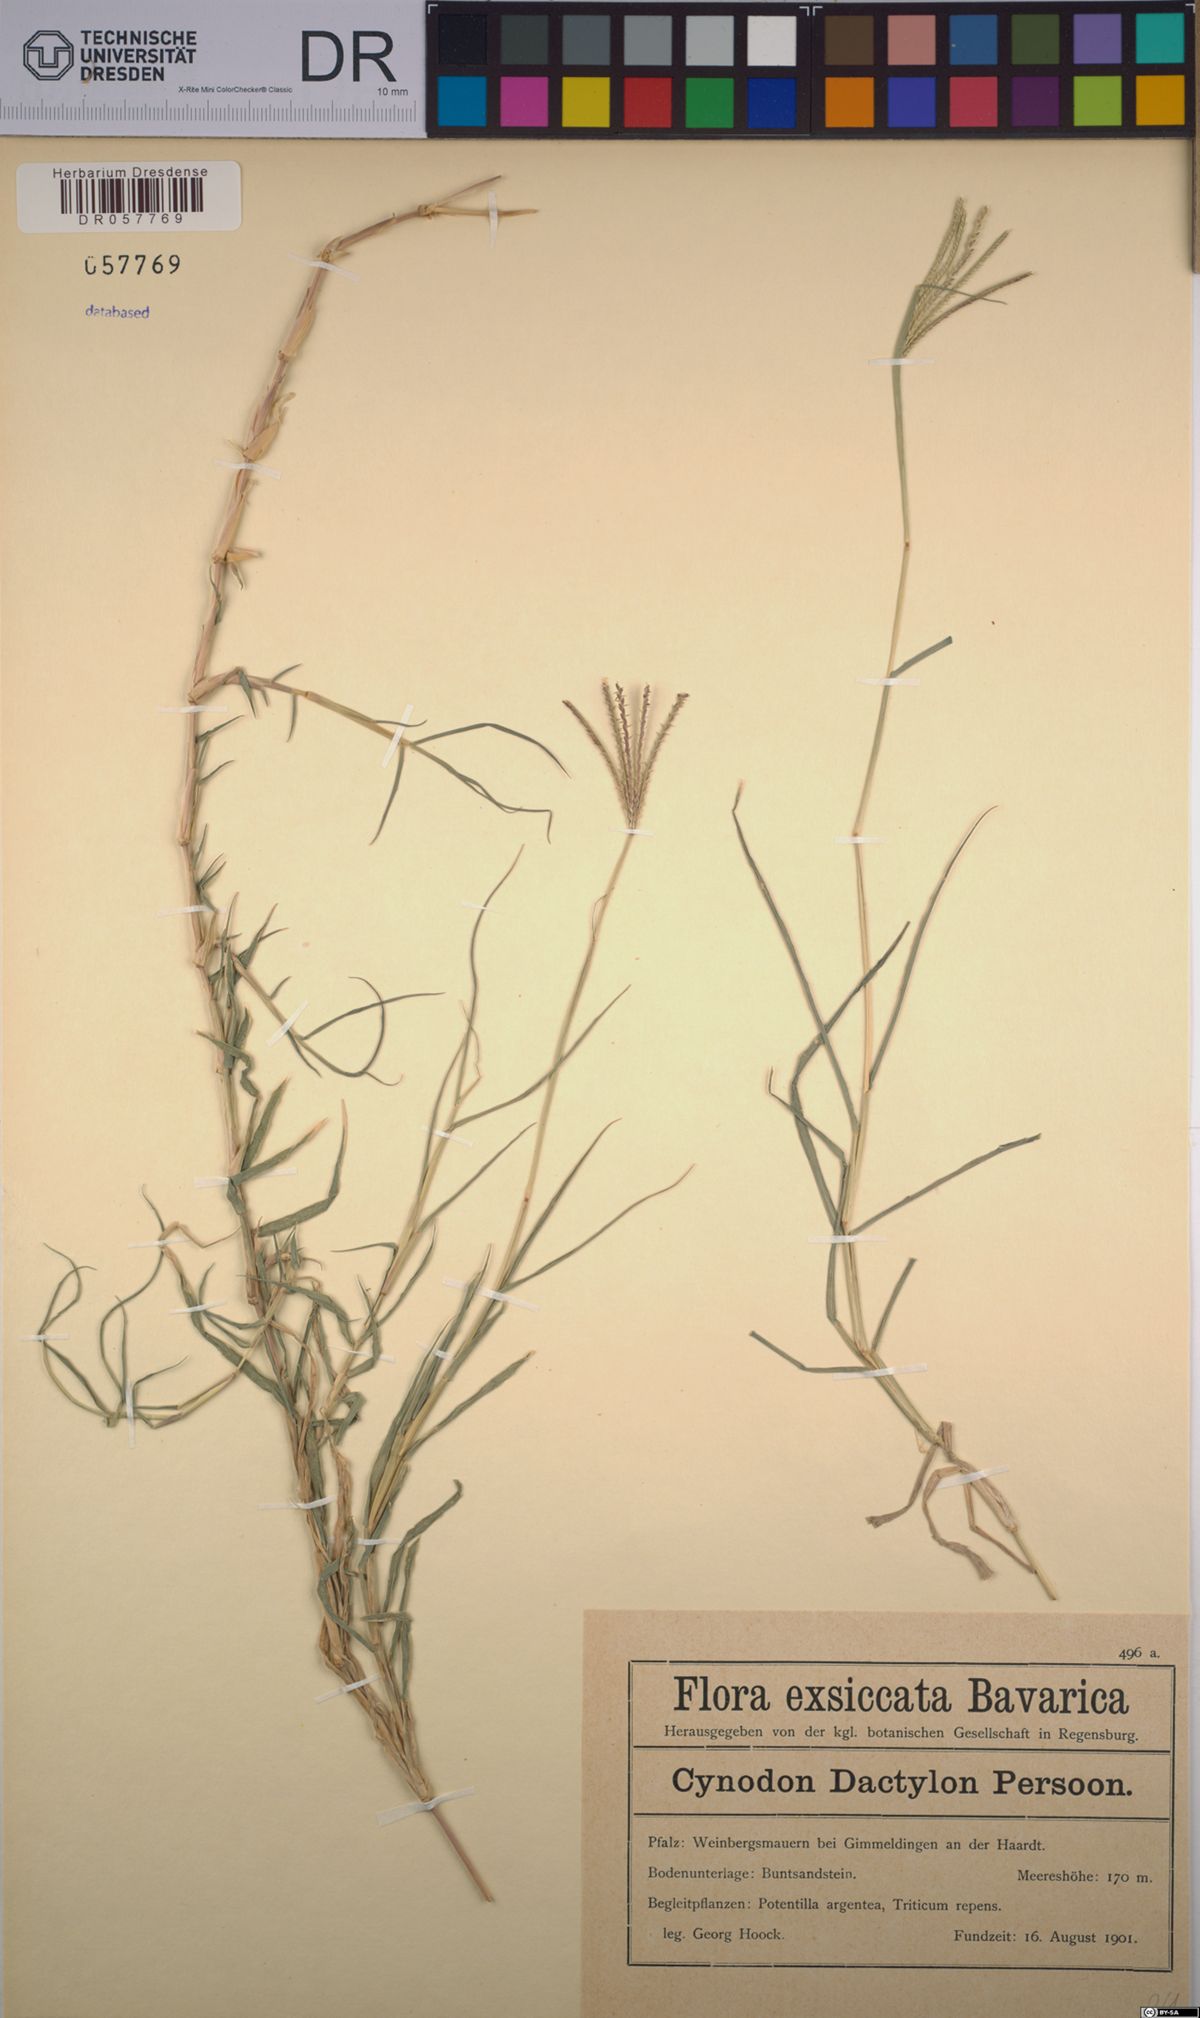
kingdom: Plantae
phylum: Tracheophyta
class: Liliopsida
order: Poales
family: Poaceae
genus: Cynodon
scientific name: Cynodon dactylon
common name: Bermuda grass
